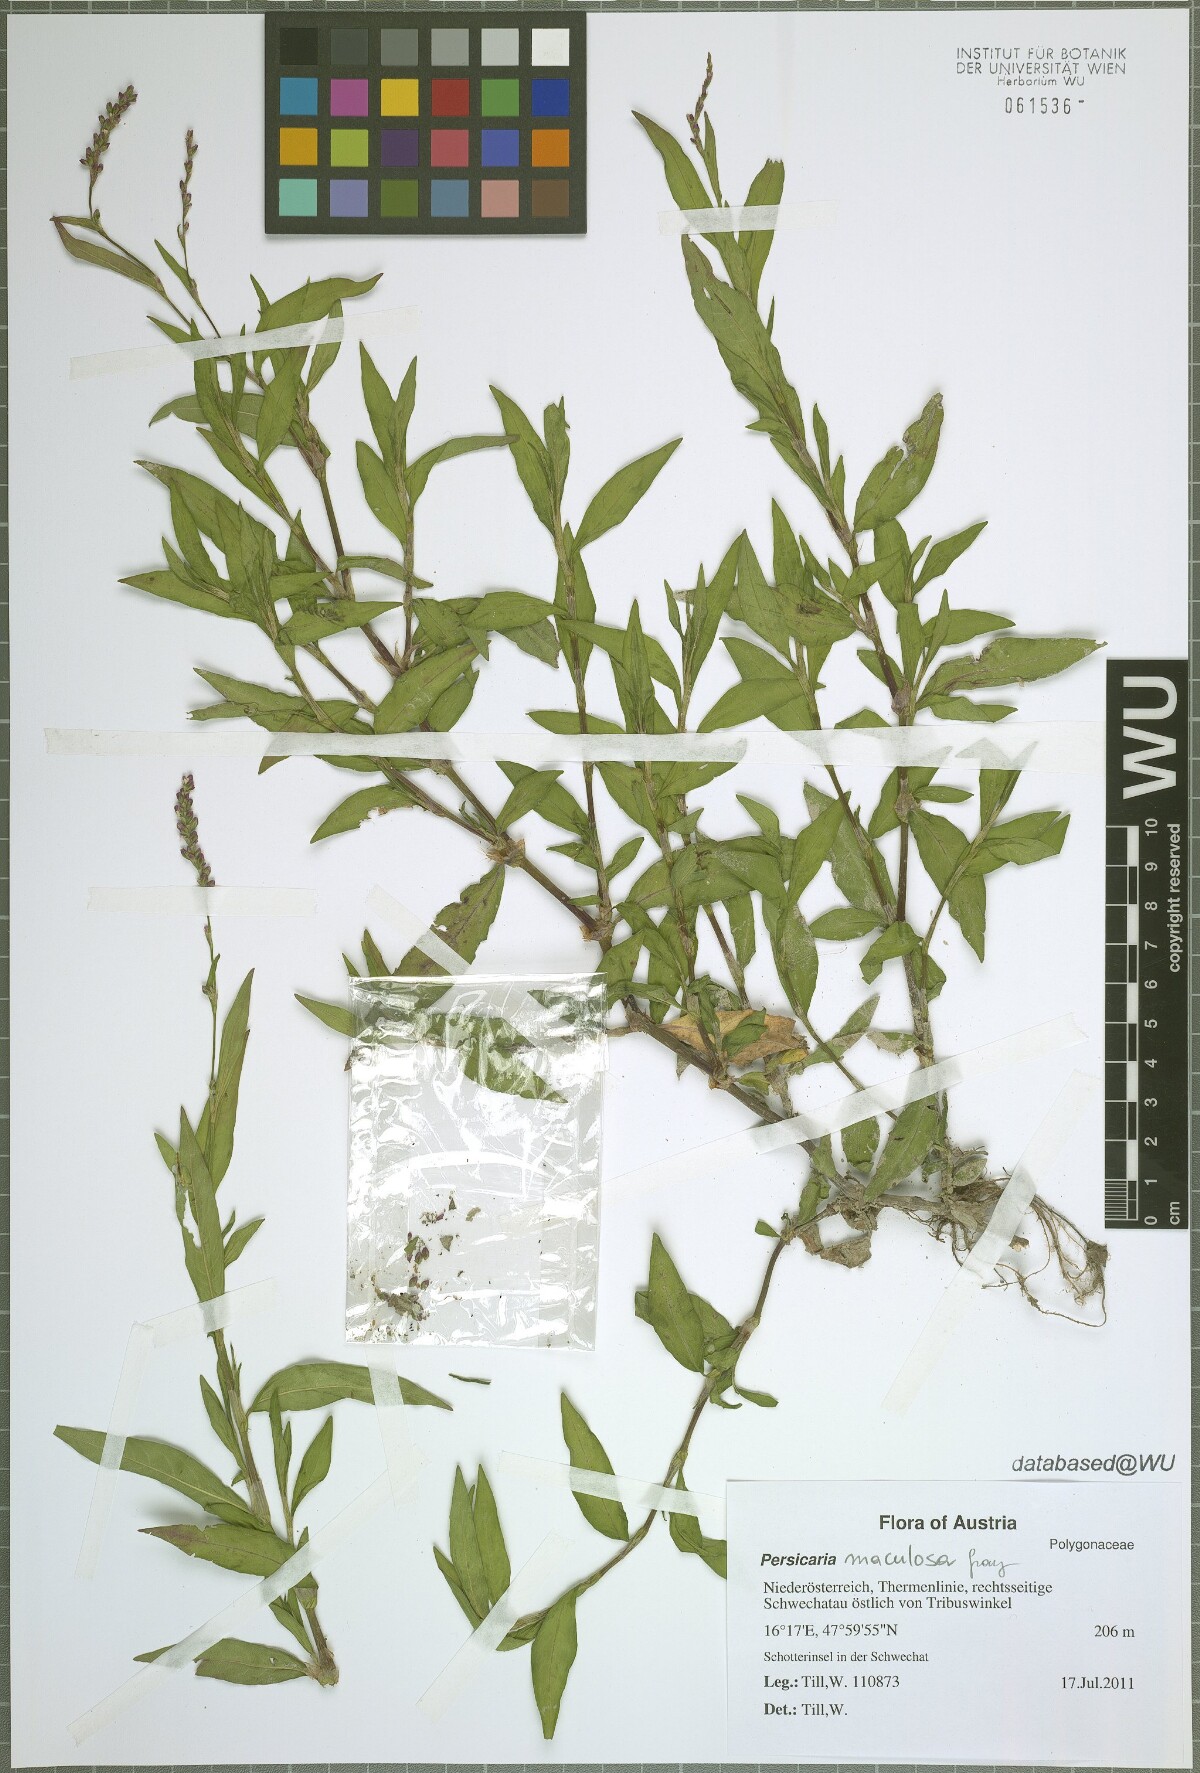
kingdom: Plantae
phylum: Tracheophyta
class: Magnoliopsida
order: Caryophyllales
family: Polygonaceae
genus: Persicaria
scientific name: Persicaria maculosa
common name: Redshank
